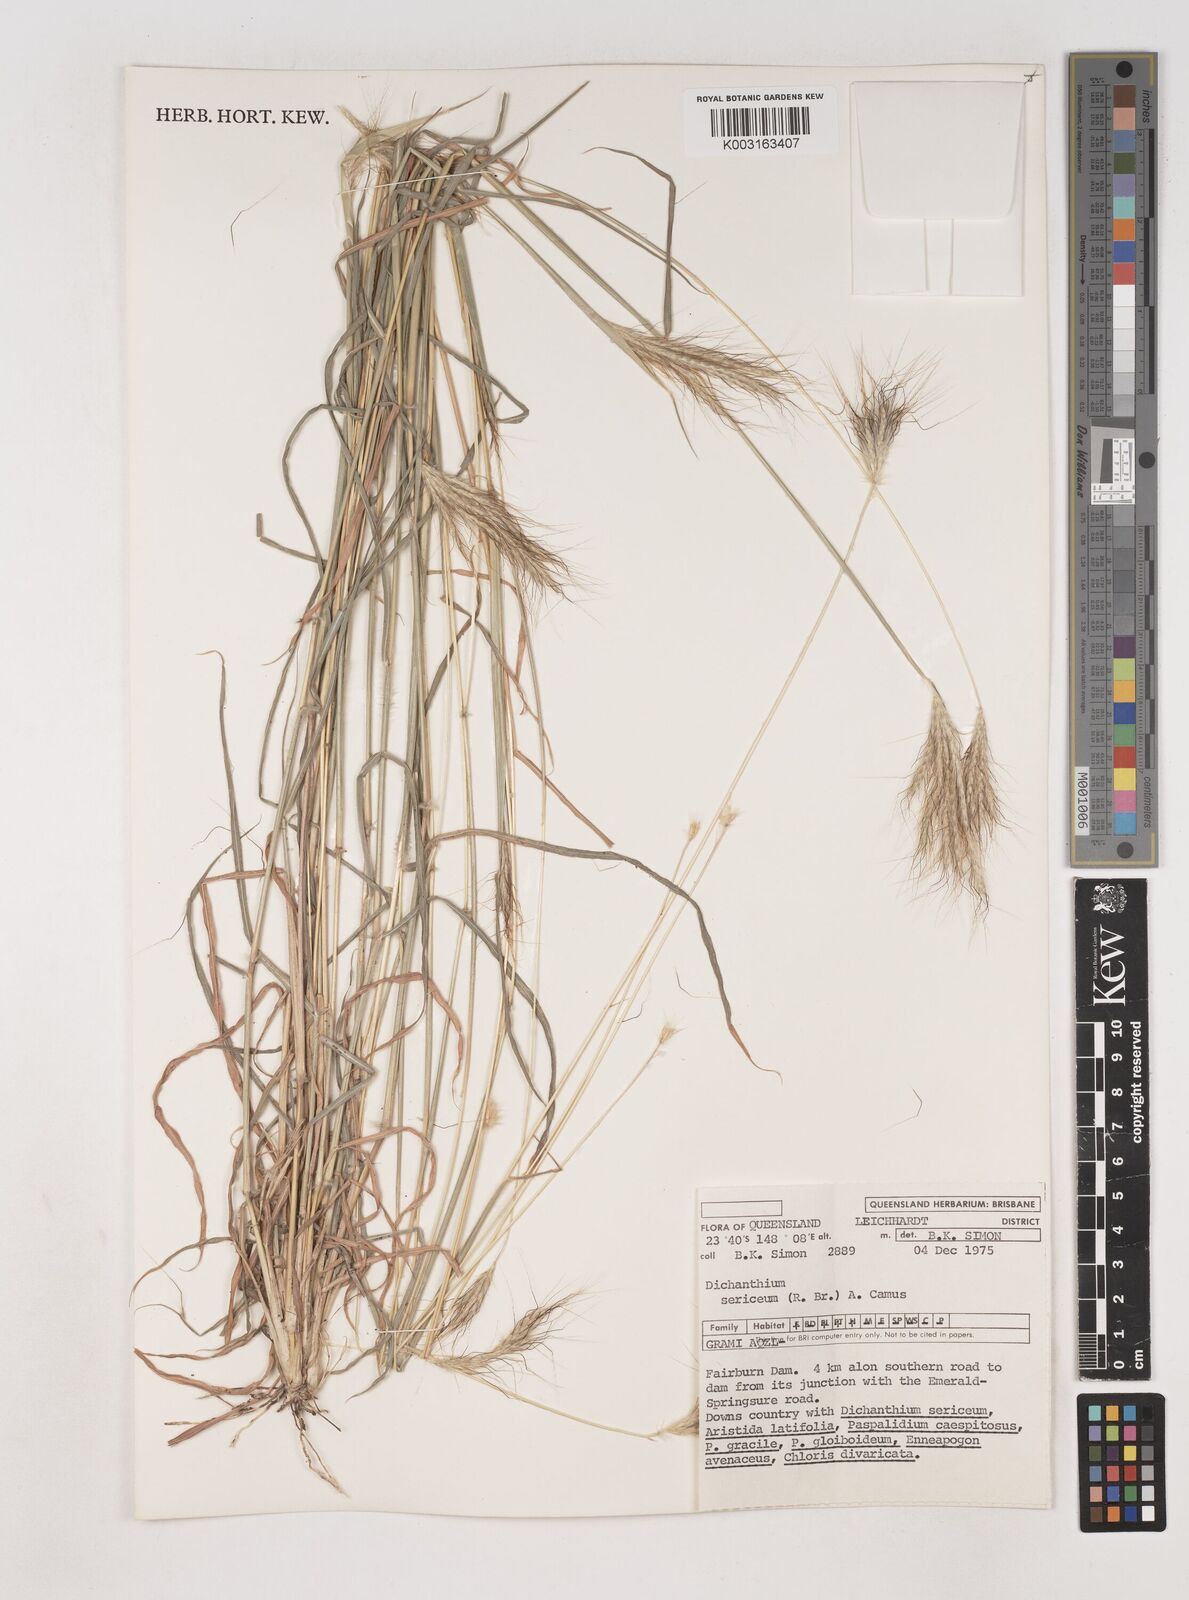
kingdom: Plantae
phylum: Tracheophyta
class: Liliopsida
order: Poales
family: Poaceae
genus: Dichanthium
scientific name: Dichanthium sericeum
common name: Silky bluestem
